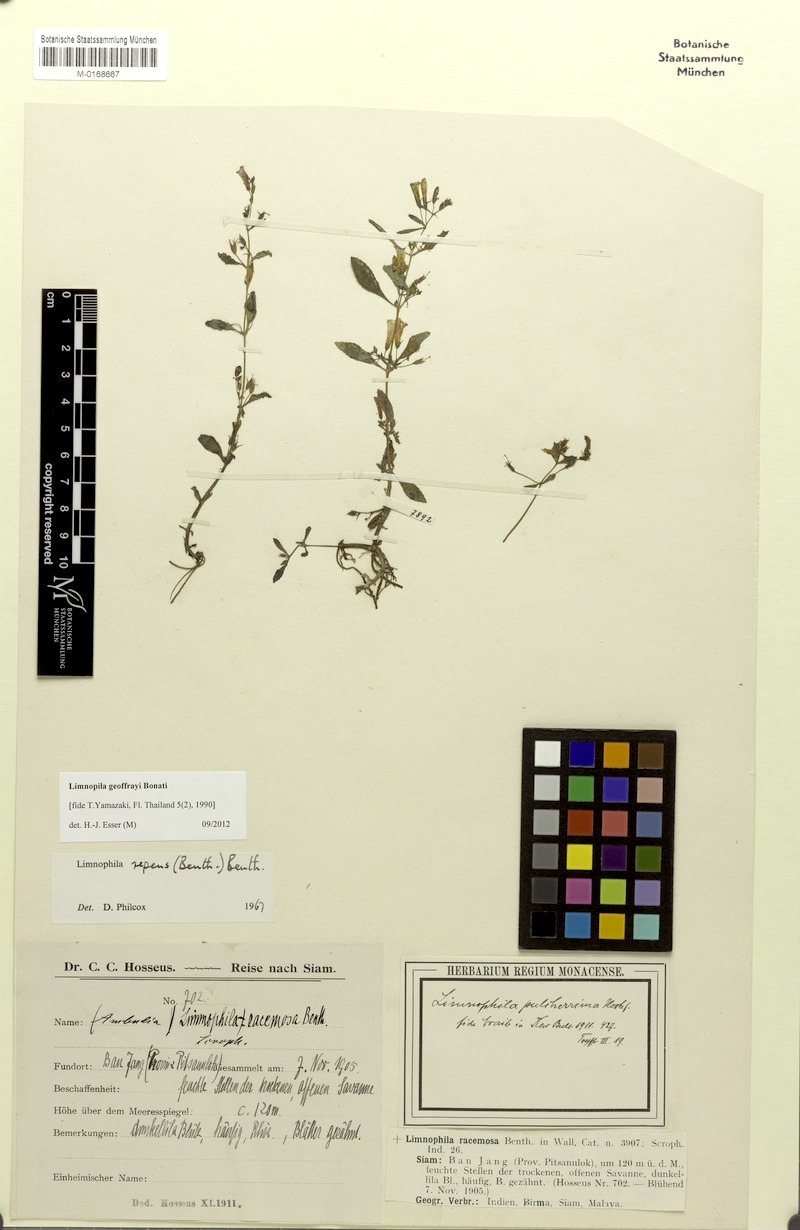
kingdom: Plantae
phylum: Tracheophyta
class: Magnoliopsida
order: Lamiales
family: Plantaginaceae
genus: Limnophila
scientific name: Limnophila geoffrayi
